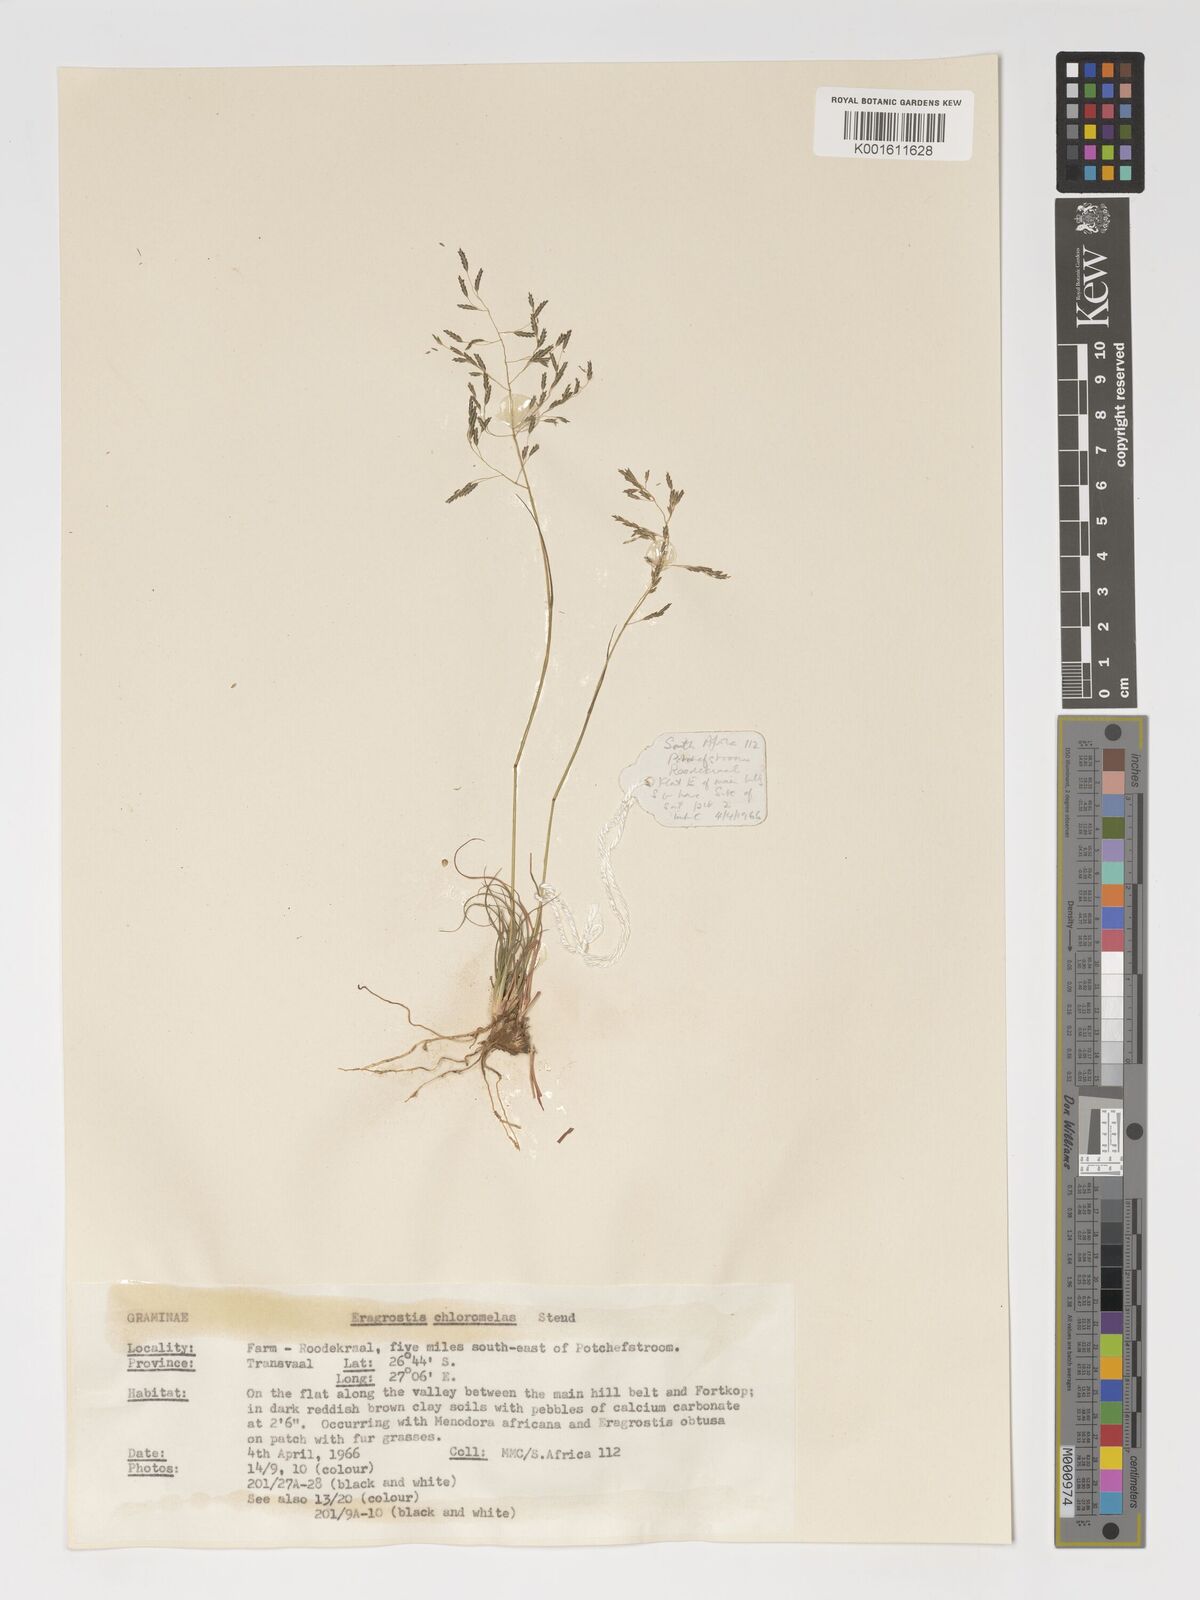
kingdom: Plantae
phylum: Tracheophyta
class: Liliopsida
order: Poales
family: Poaceae
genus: Eragrostis
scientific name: Eragrostis curvula
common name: African love-grass
